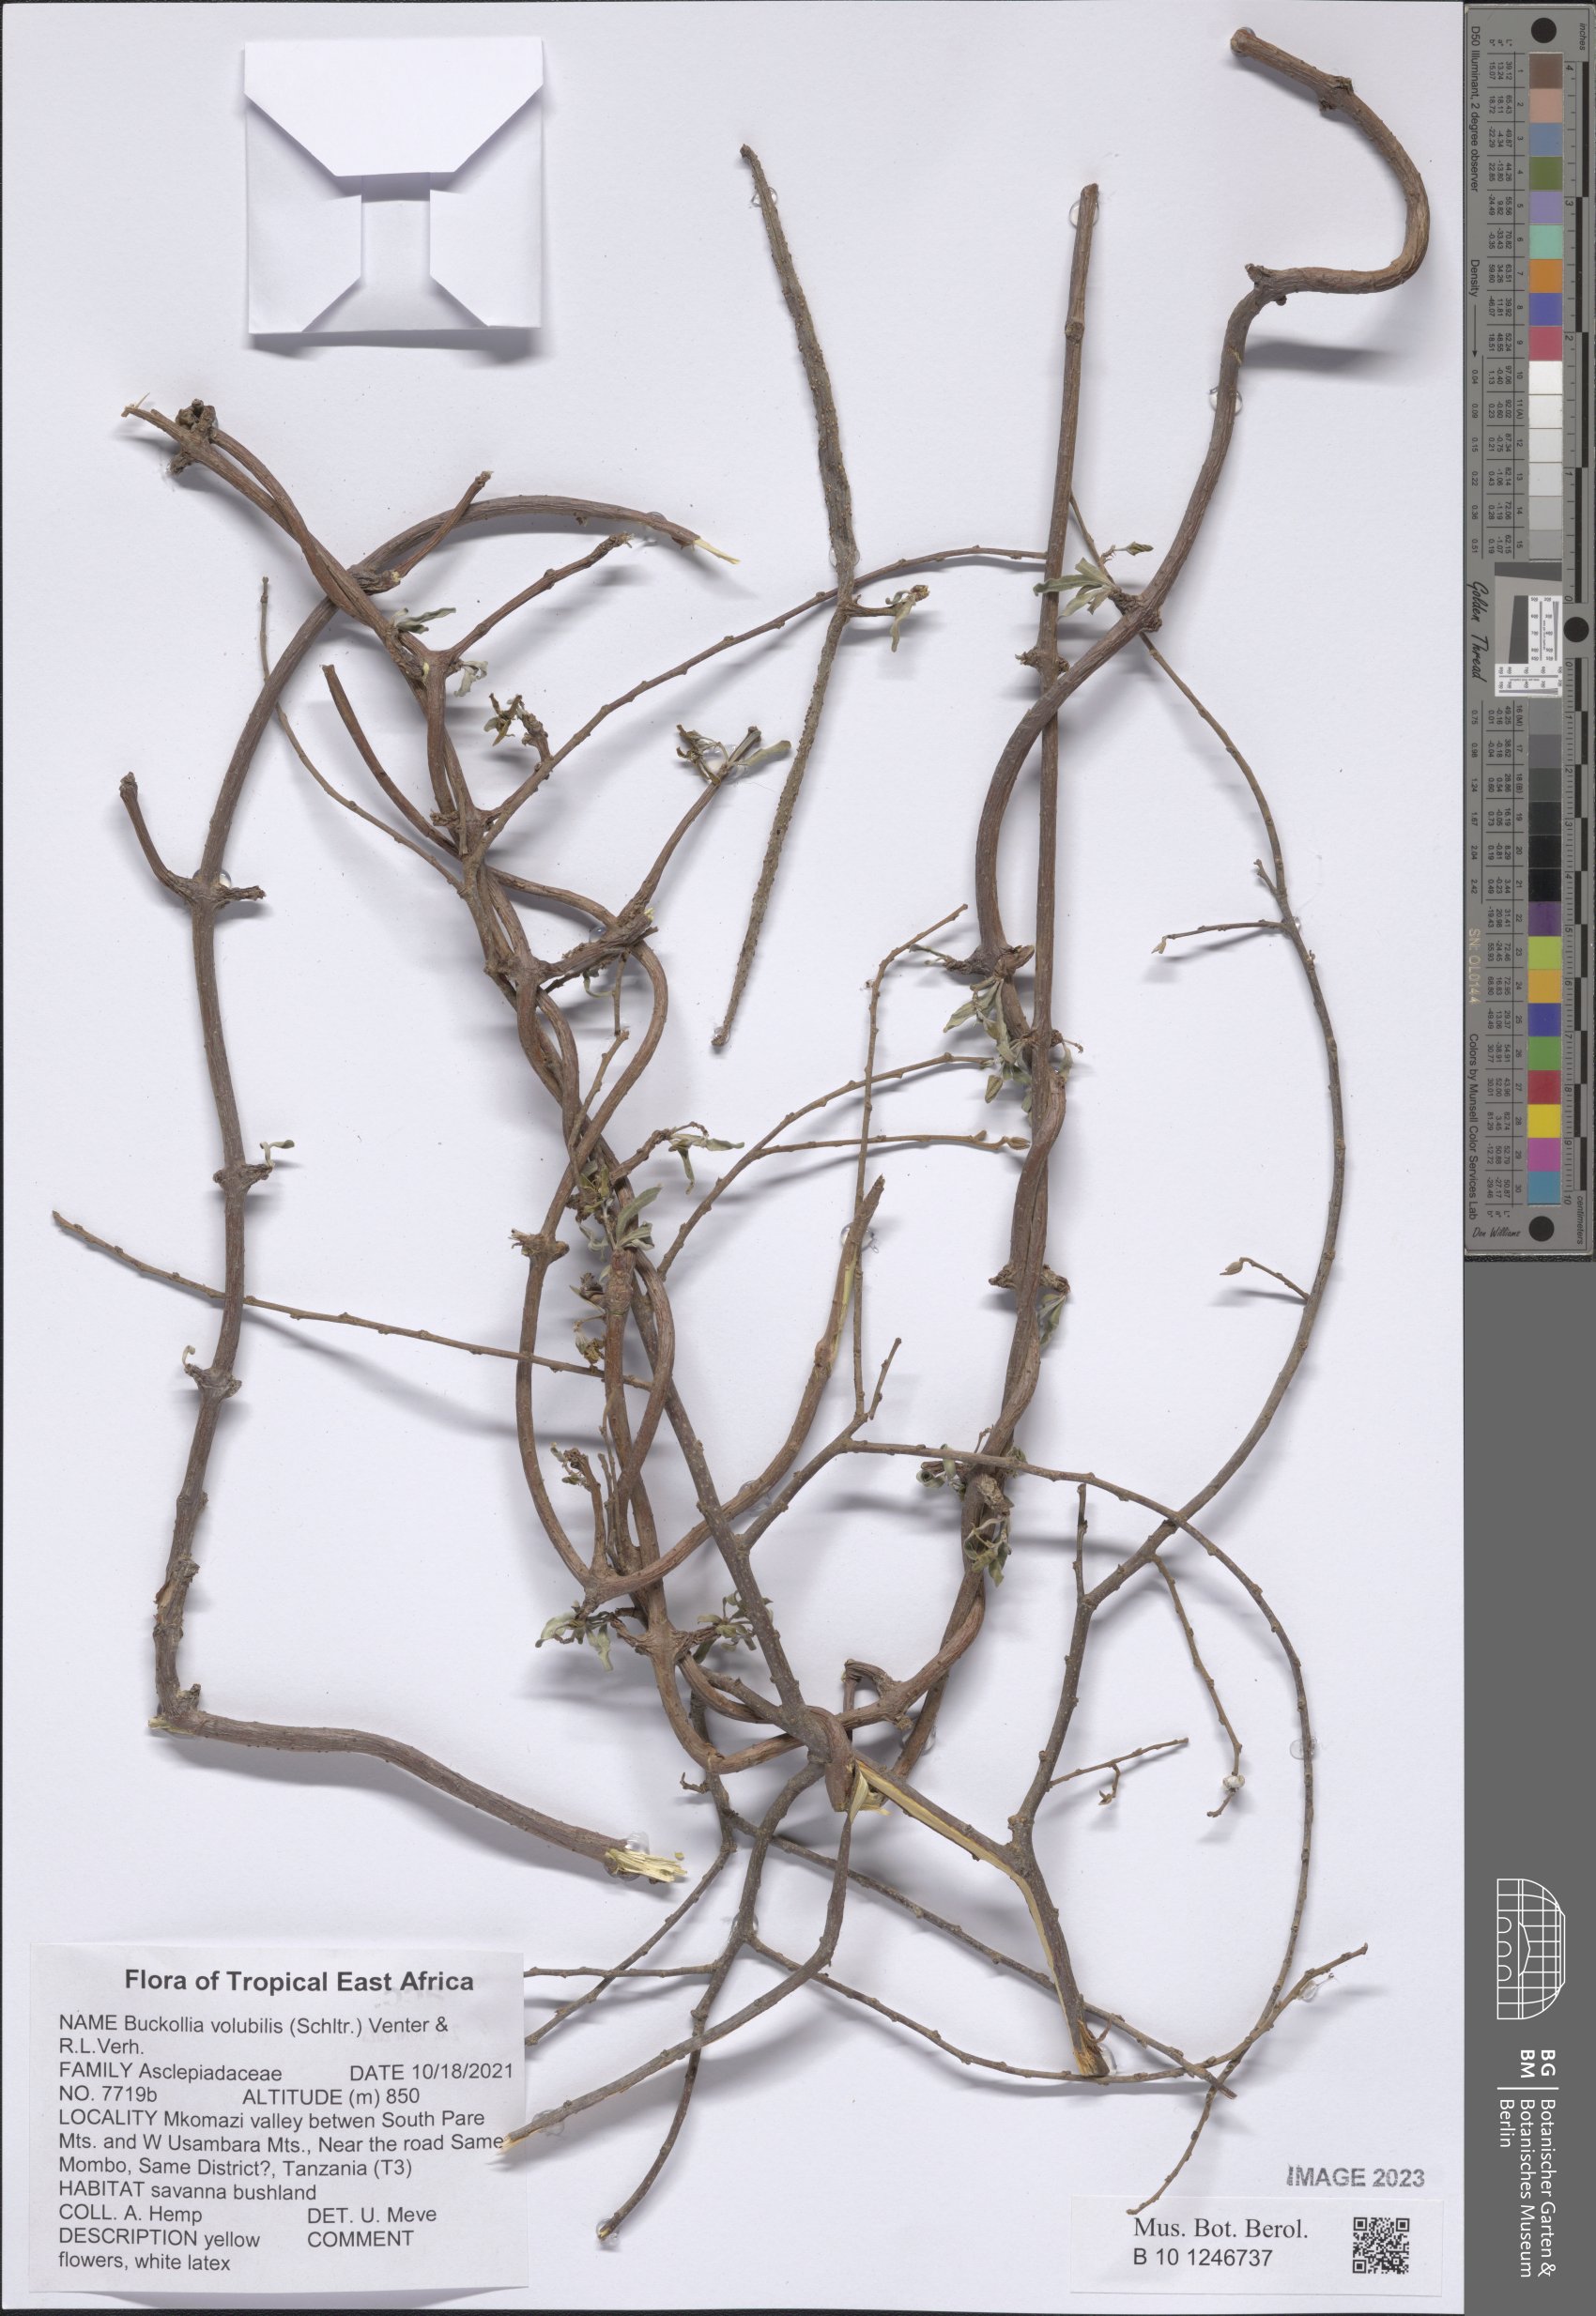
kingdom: Plantae
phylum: Tracheophyta
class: Magnoliopsida
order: Gentianales
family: Apocynaceae
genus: Buckollia
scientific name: Buckollia volubilis
